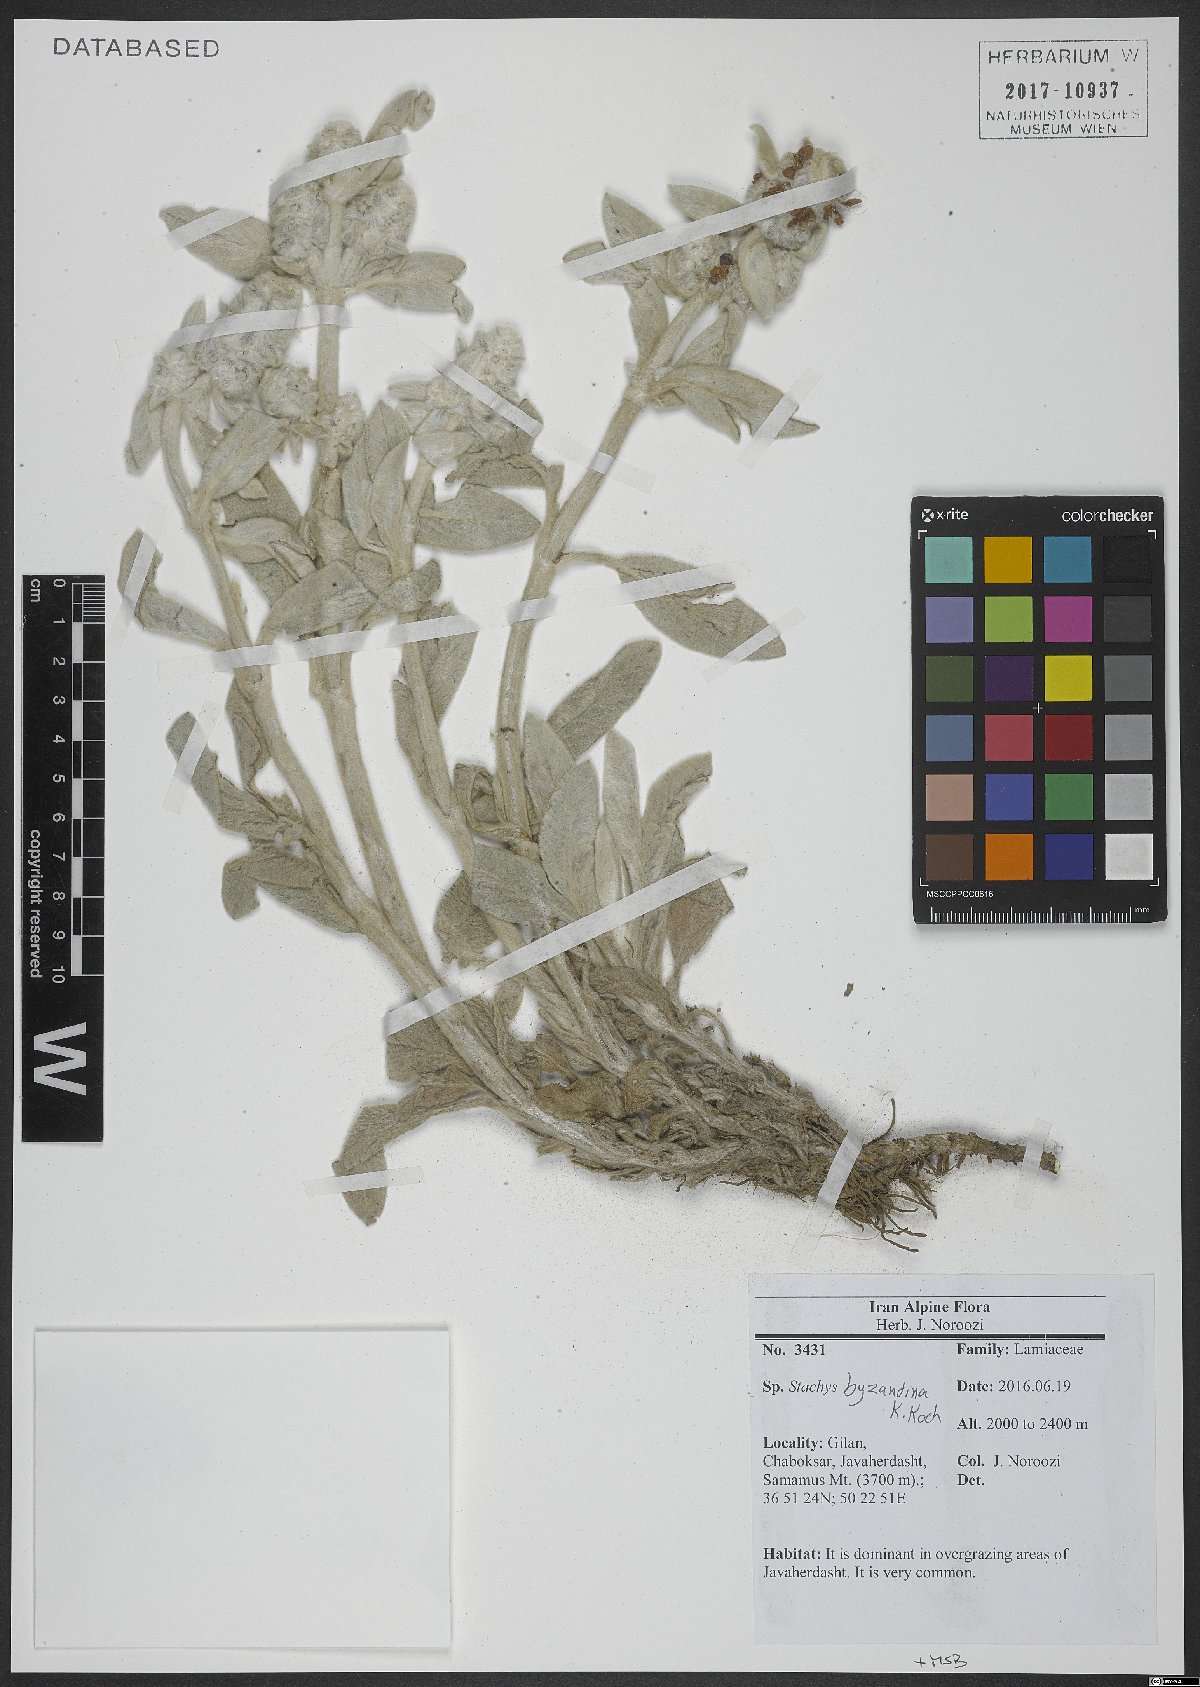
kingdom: Plantae
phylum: Tracheophyta
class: Magnoliopsida
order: Lamiales
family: Lamiaceae
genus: Stachys
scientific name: Stachys byzantina
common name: Lamb's-ear
